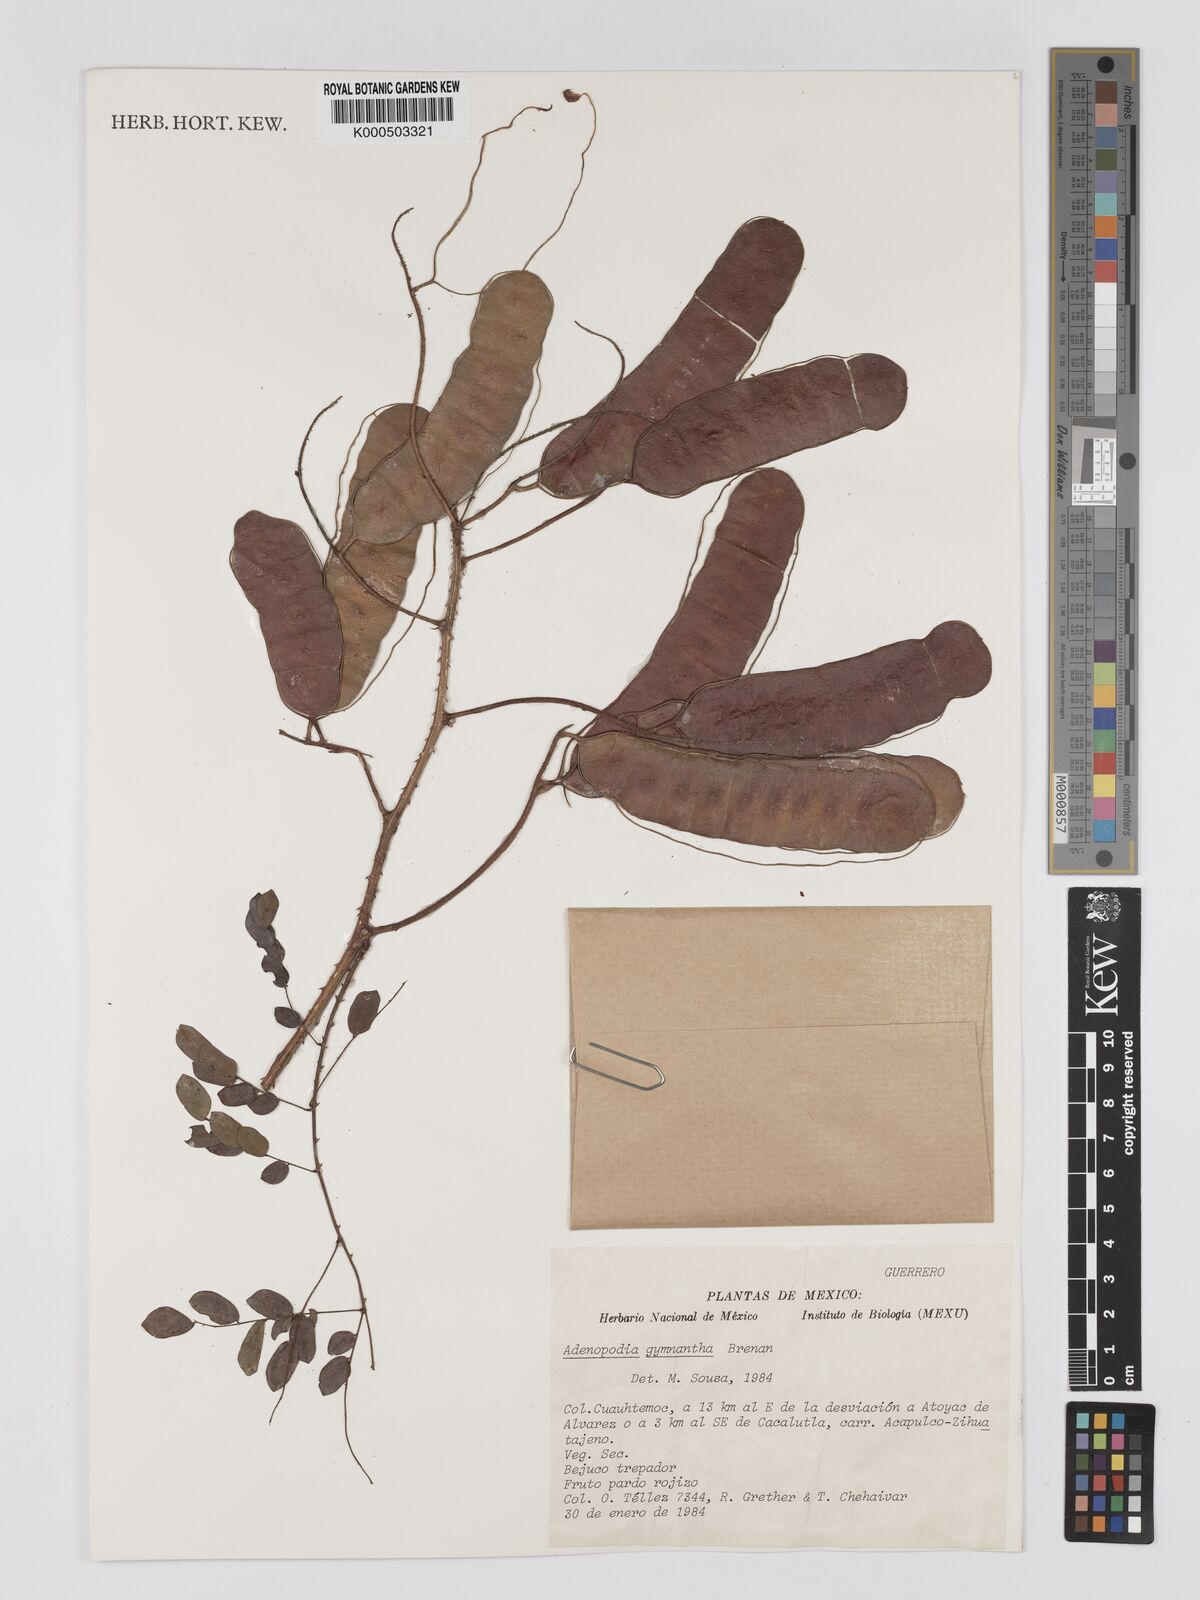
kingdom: Plantae
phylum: Tracheophyta
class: Magnoliopsida
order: Fabales
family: Fabaceae
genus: Adenopodia
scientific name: Adenopodia gymnantha
